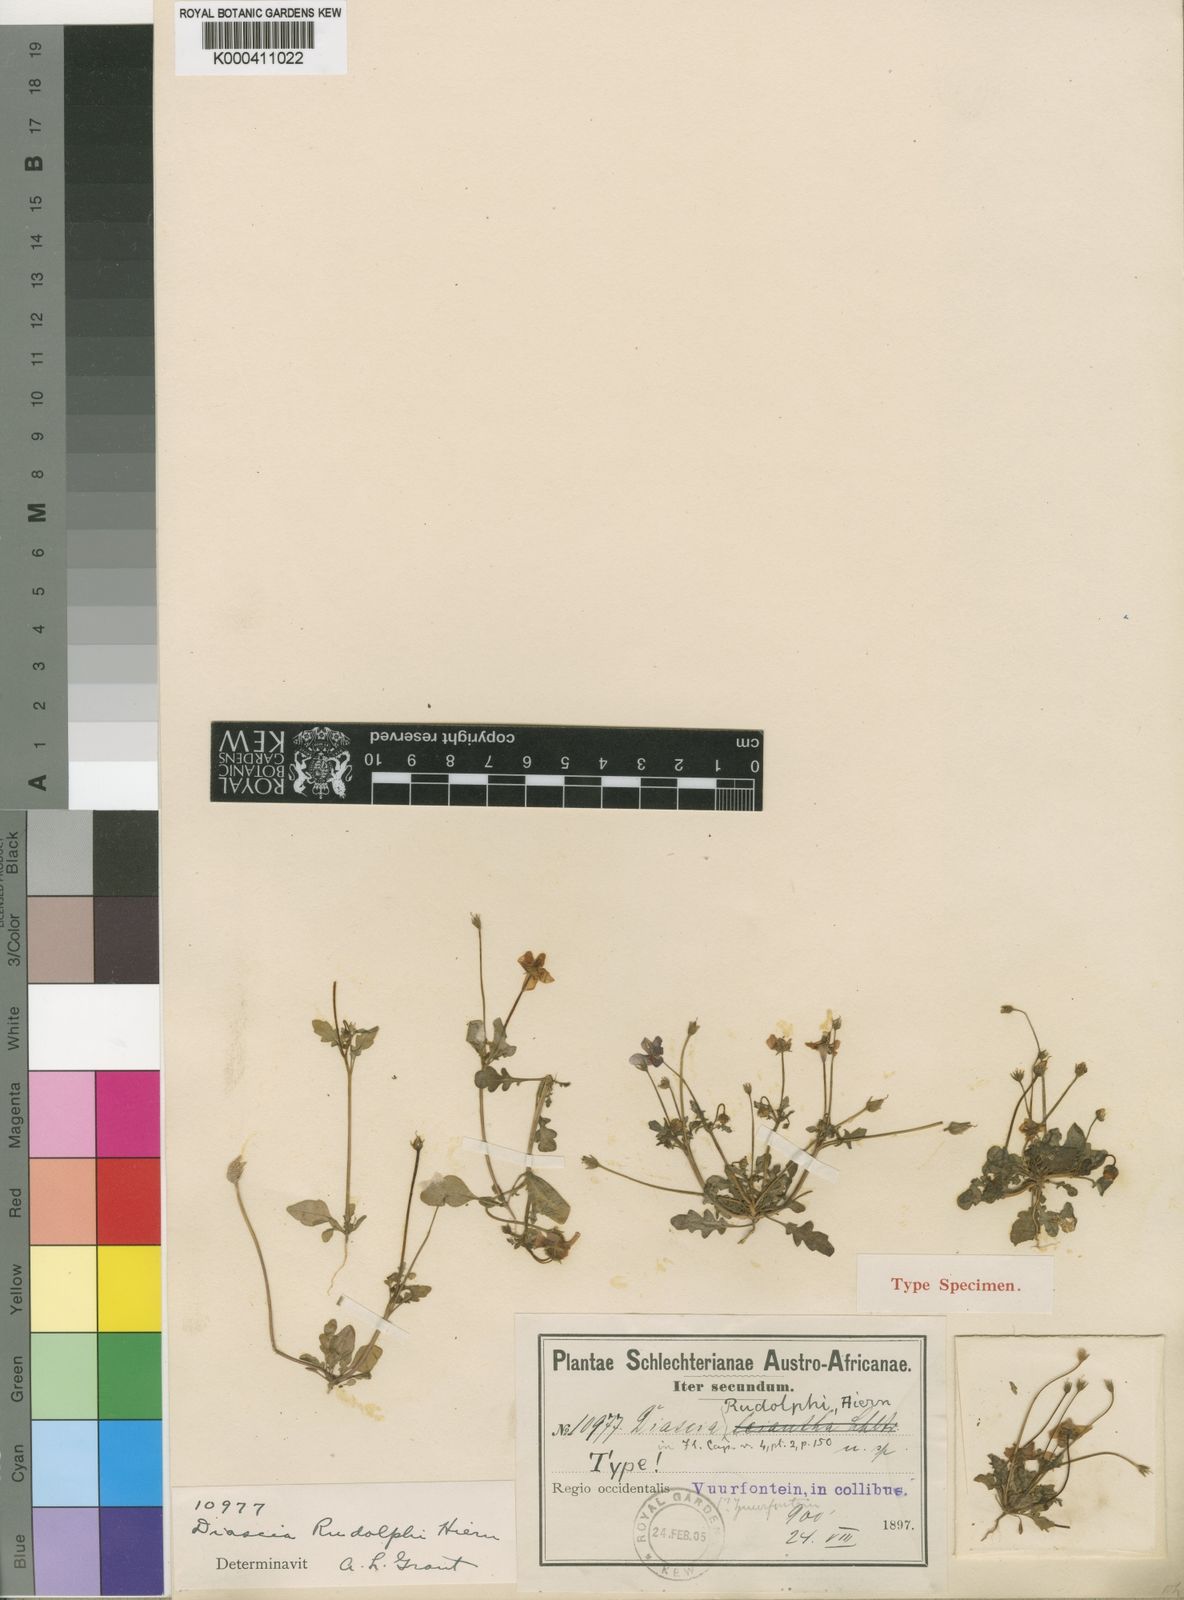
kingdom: Plantae
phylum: Tracheophyta
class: Magnoliopsida
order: Lamiales
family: Scrophulariaceae
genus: Diascia
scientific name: Diascia rudolphii
